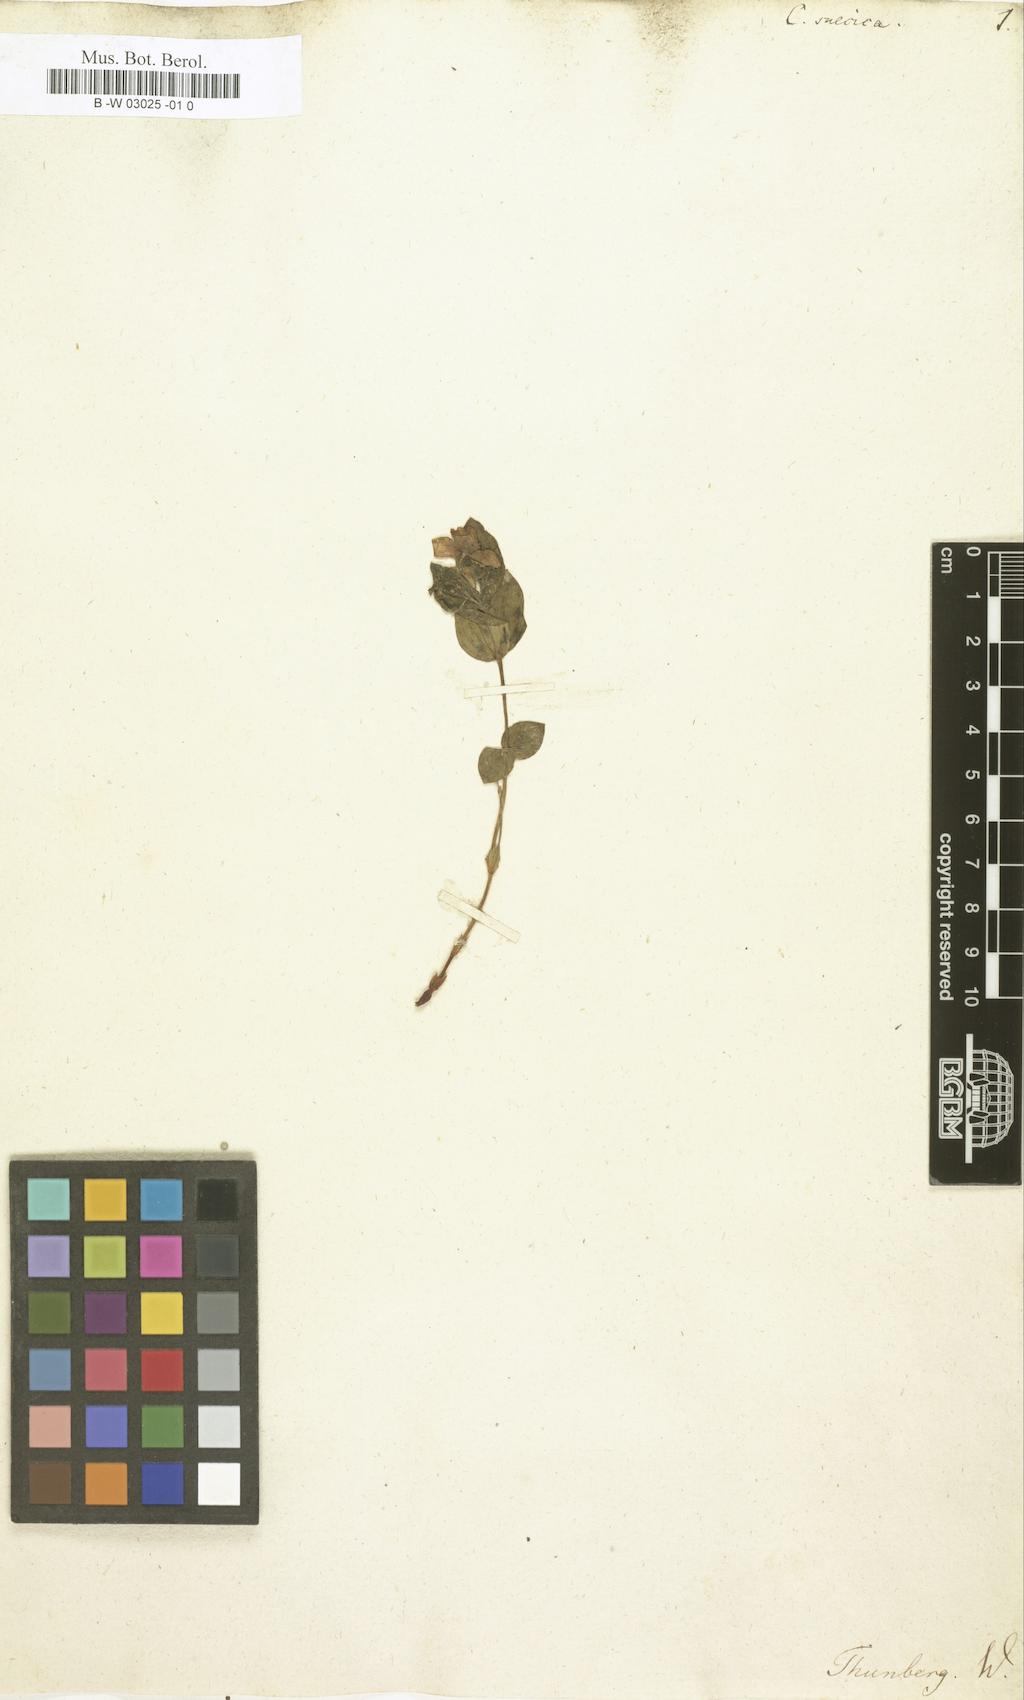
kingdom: Plantae
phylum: Tracheophyta
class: Magnoliopsida
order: Cornales
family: Cornaceae
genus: Cornus
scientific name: Cornus suecica
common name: Dwarf cornel
